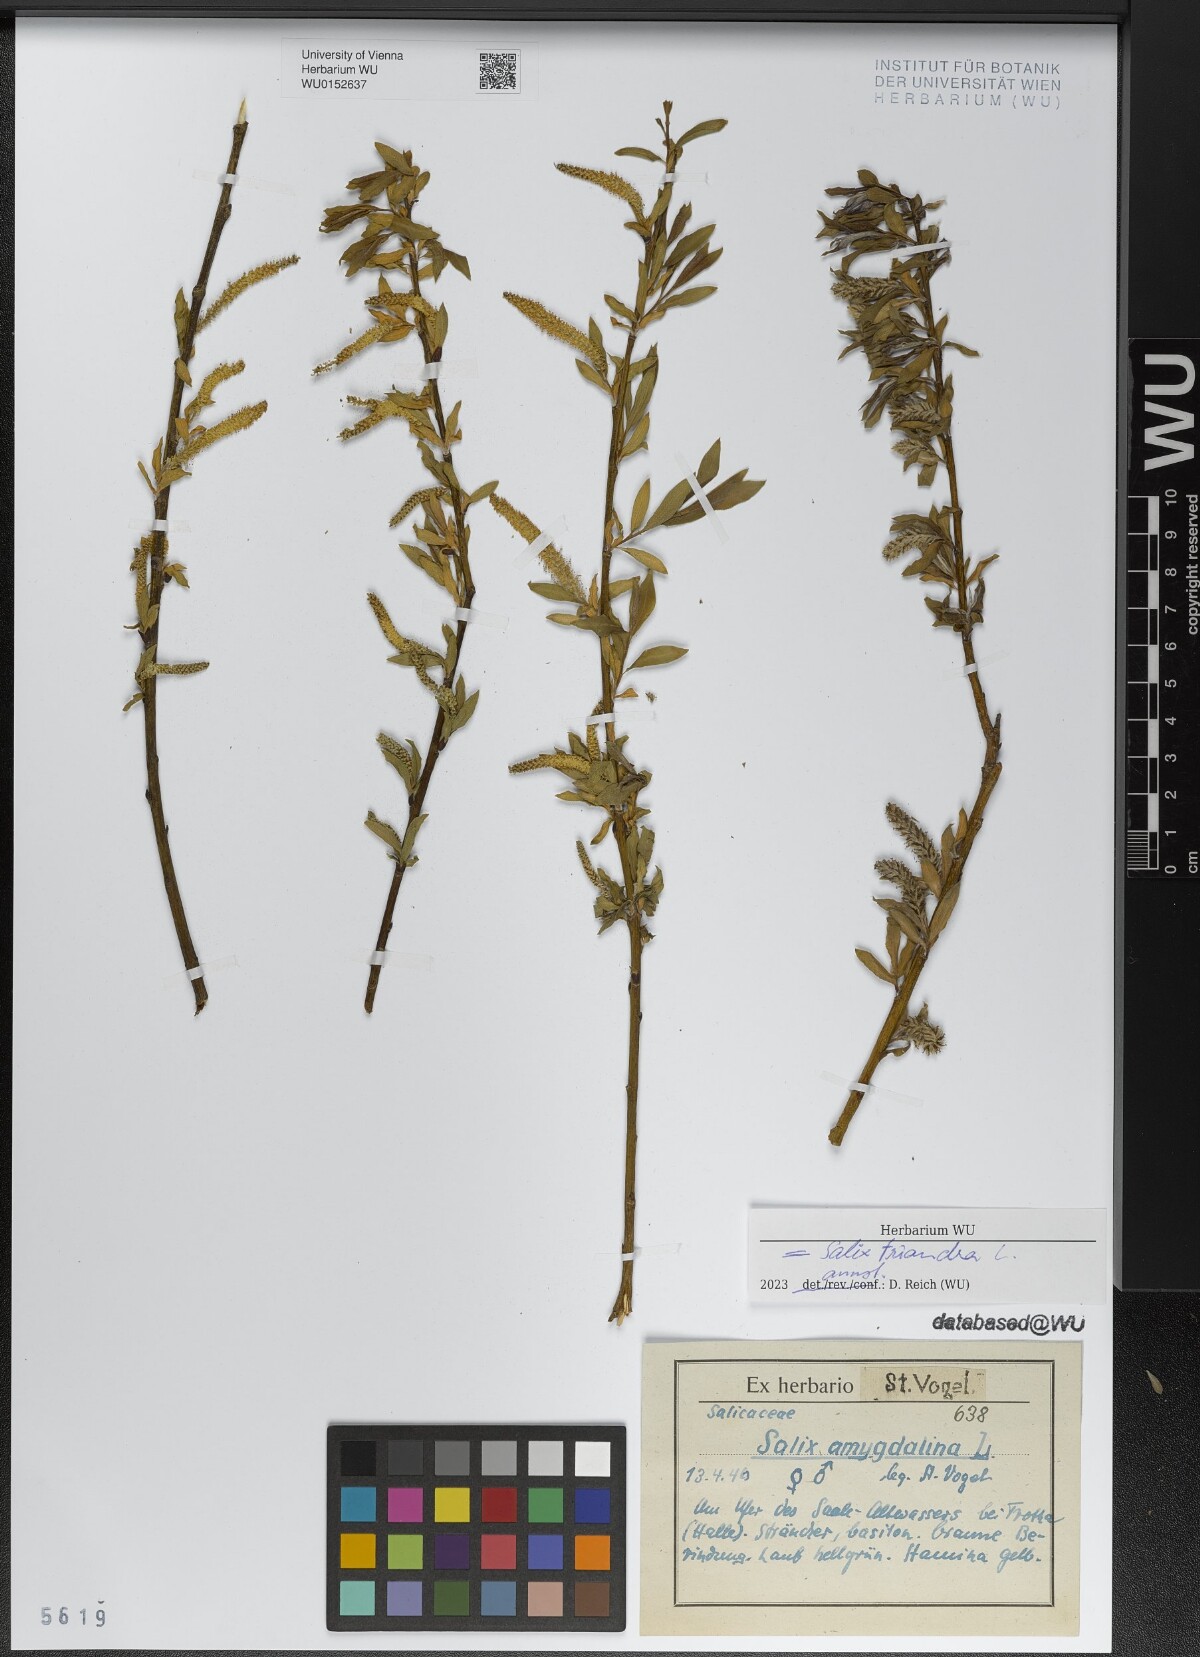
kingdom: Plantae
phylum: Tracheophyta
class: Magnoliopsida
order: Malpighiales
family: Salicaceae
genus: Salix
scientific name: Salix triandra
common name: Almond willow
